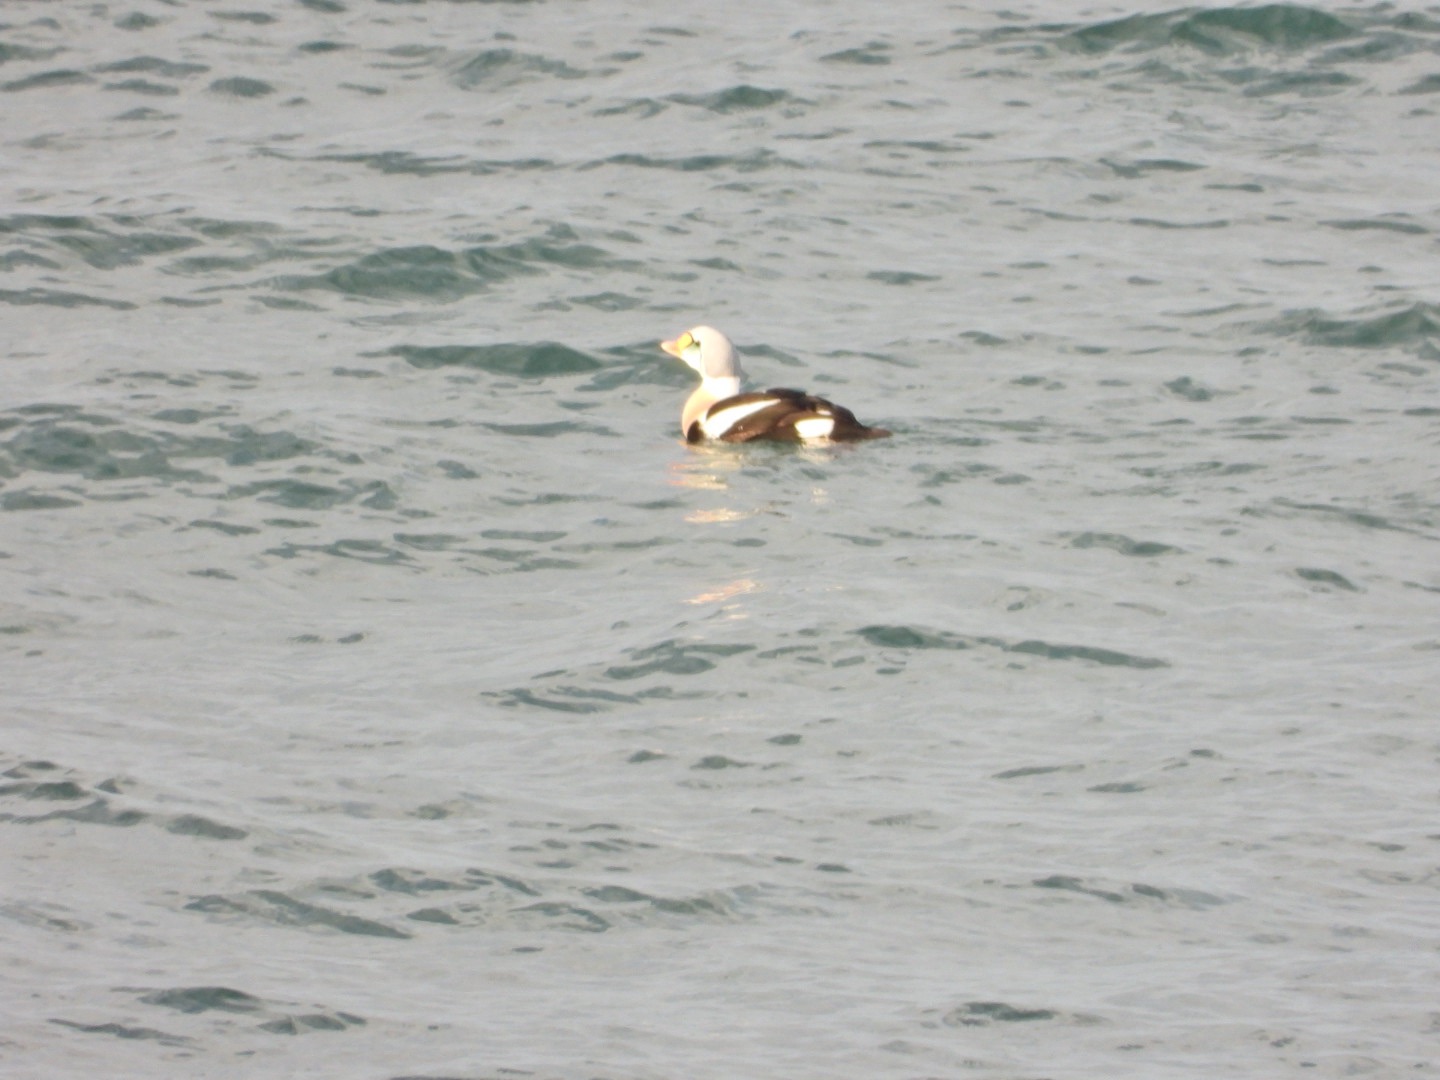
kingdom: Animalia
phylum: Chordata
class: Aves
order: Anseriformes
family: Anatidae
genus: Somateria
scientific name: Somateria spectabilis
